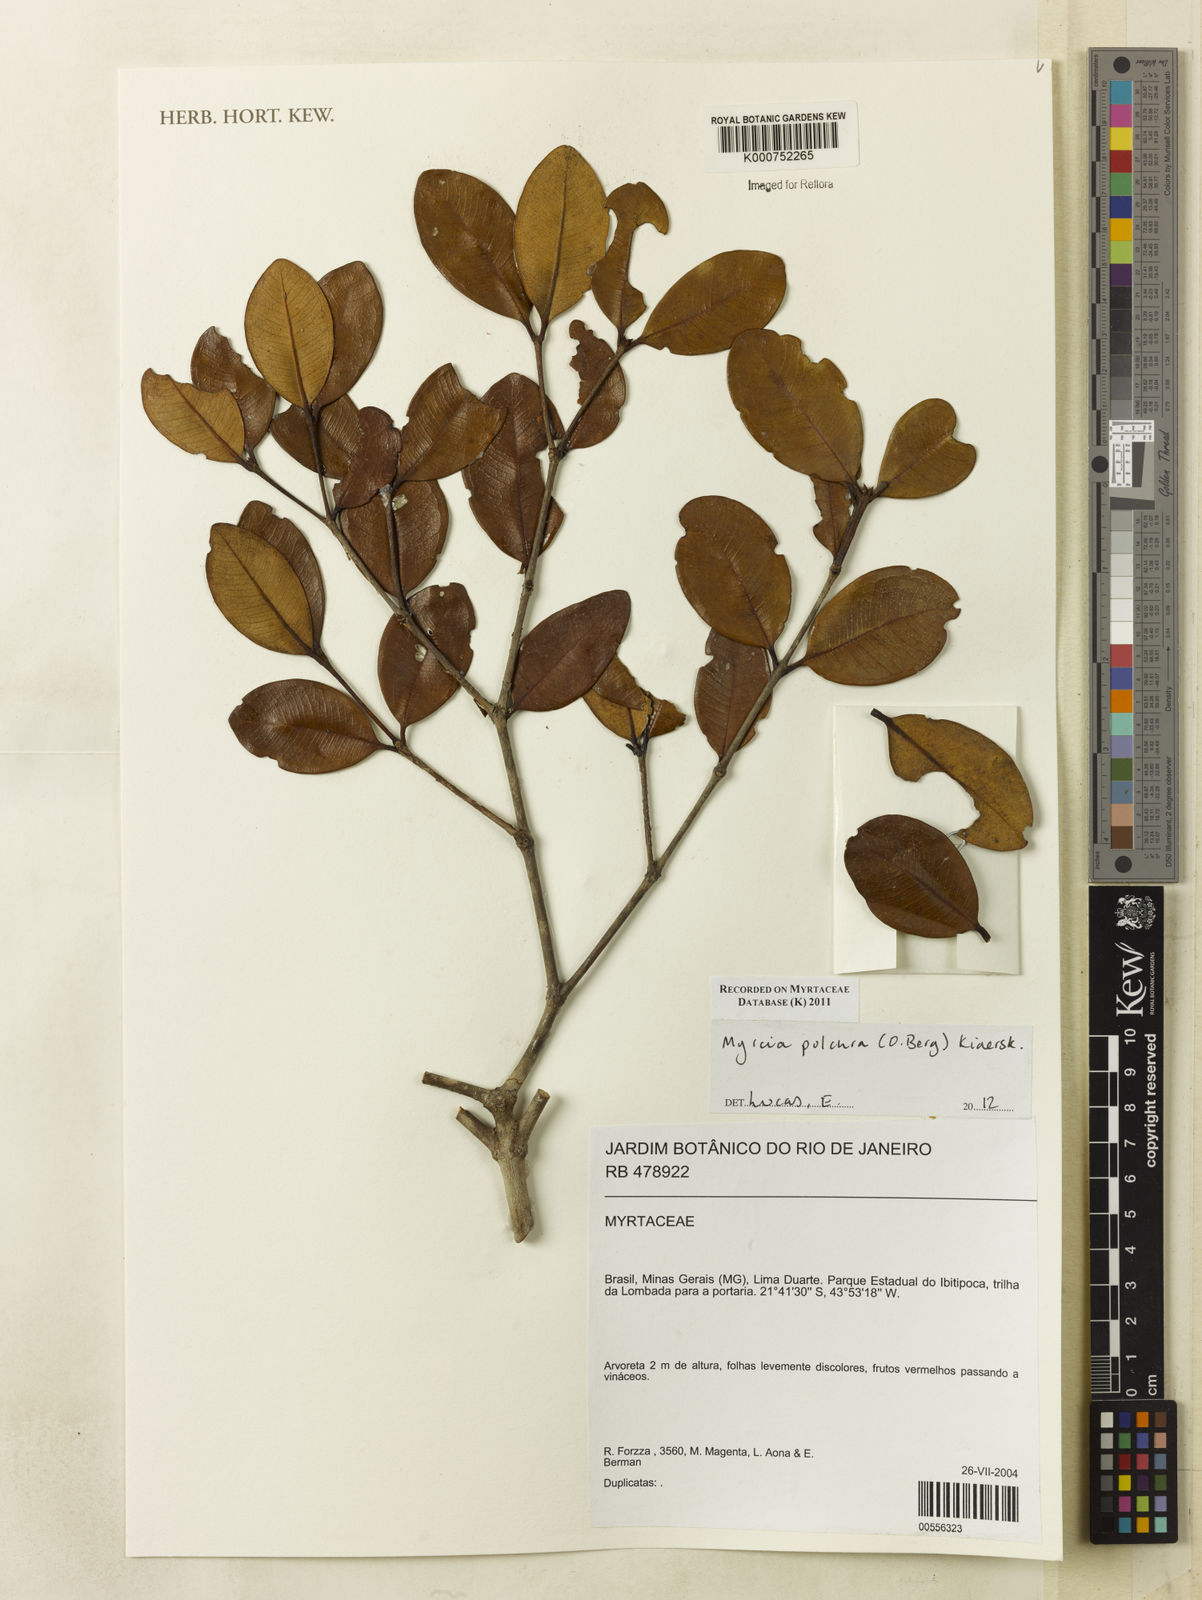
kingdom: Plantae
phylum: Tracheophyta
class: Magnoliopsida
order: Myrtales
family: Myrtaceae
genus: Myrcia
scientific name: Myrcia pulchra
